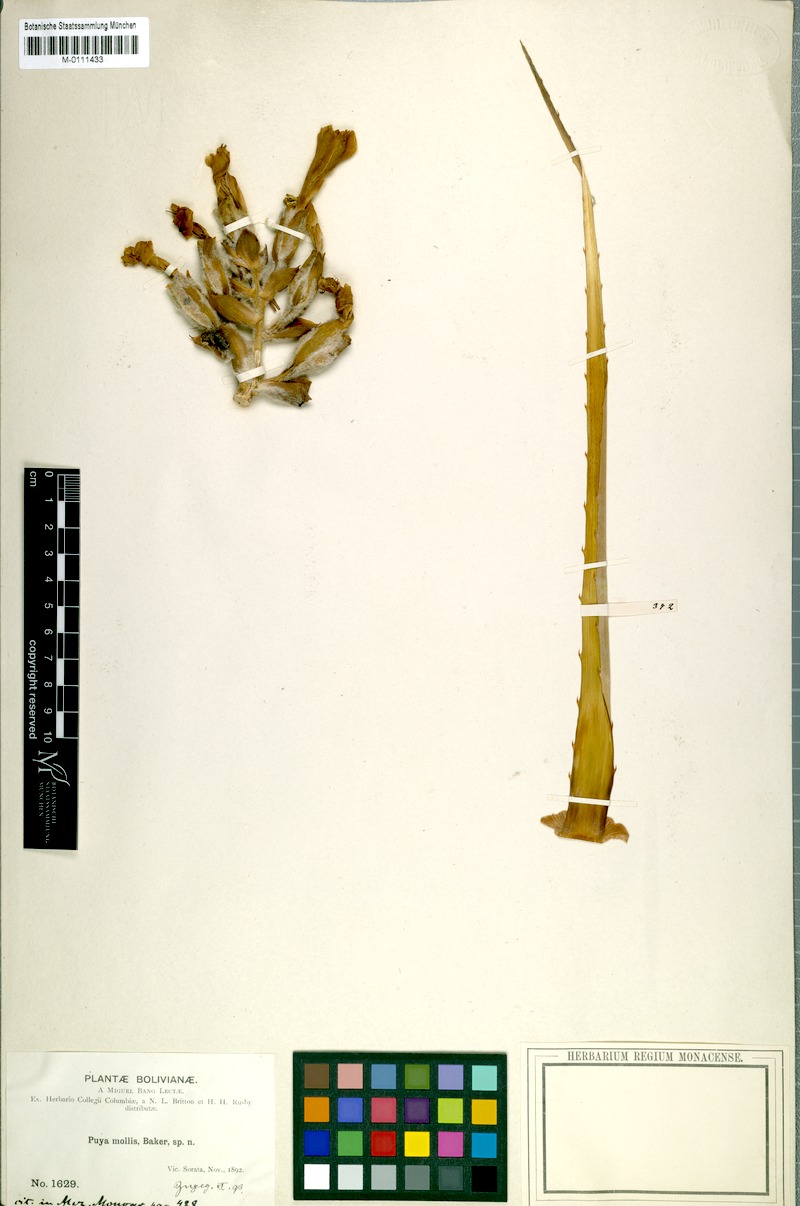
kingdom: Plantae
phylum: Tracheophyta
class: Liliopsida
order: Poales
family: Bromeliaceae
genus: Puya
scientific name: Puya mollis
